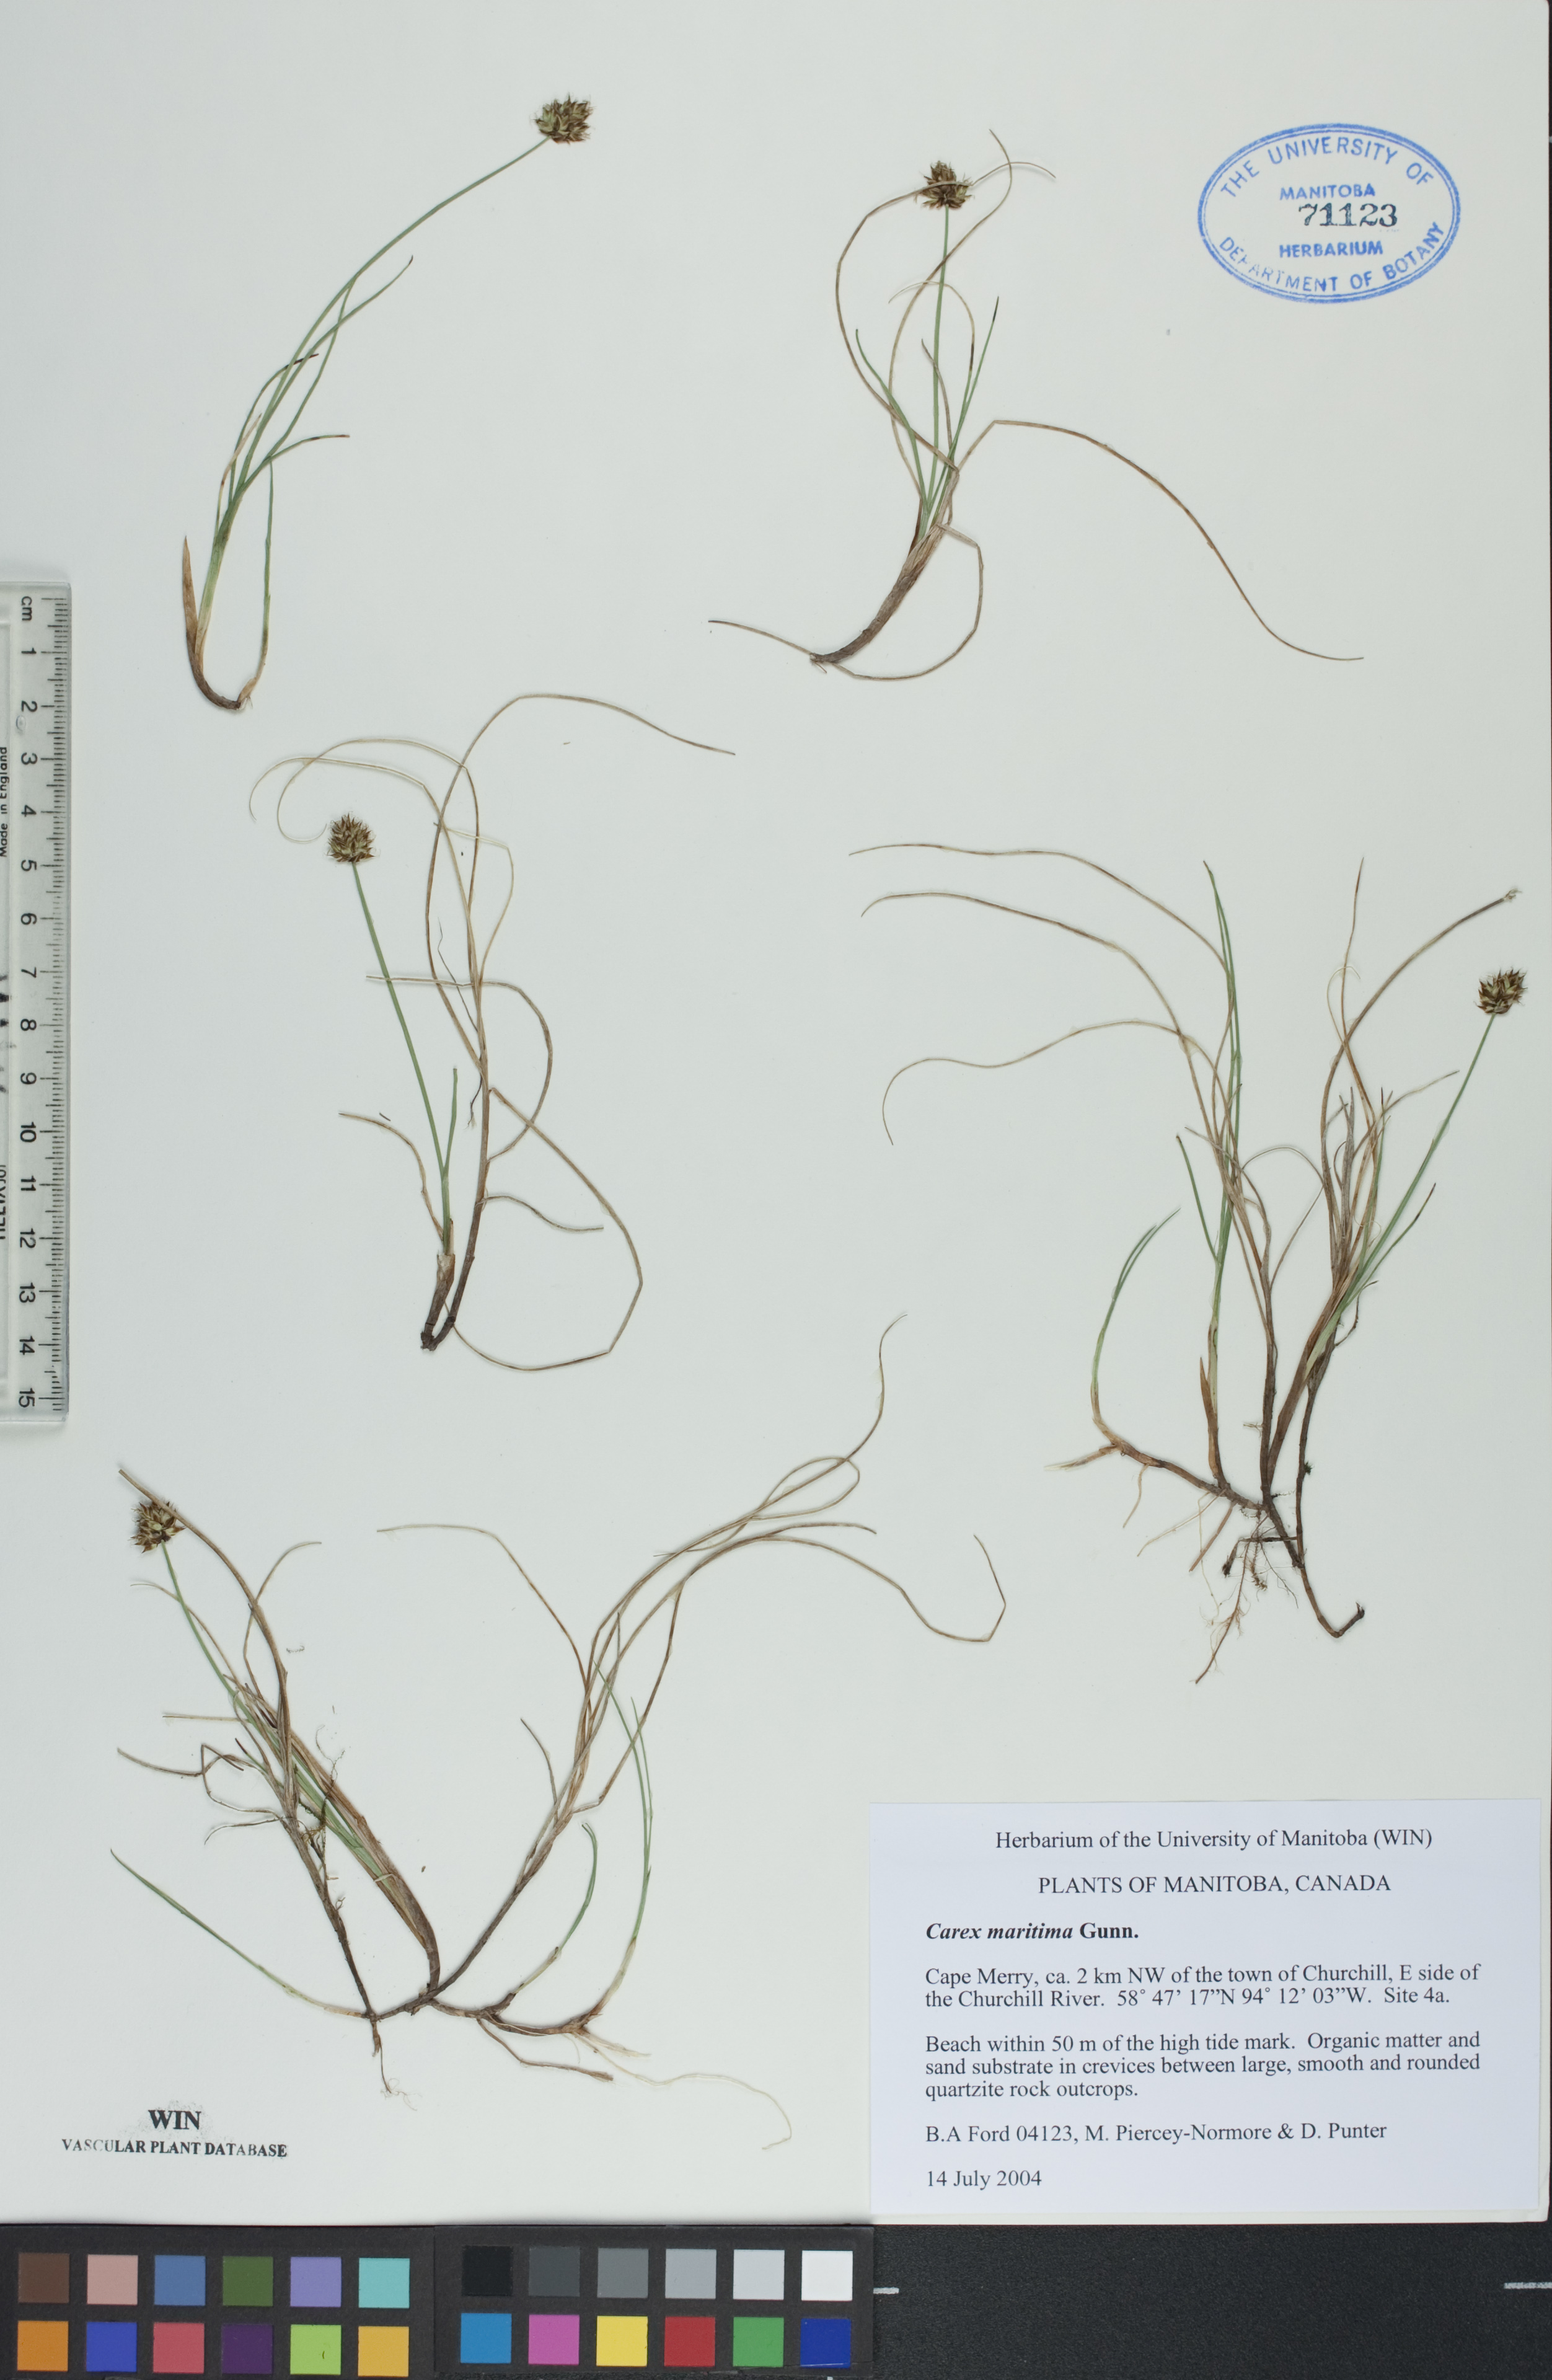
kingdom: Plantae
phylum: Tracheophyta
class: Liliopsida
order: Poales
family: Cyperaceae
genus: Carex
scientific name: Carex maritima
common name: Curved sedge
